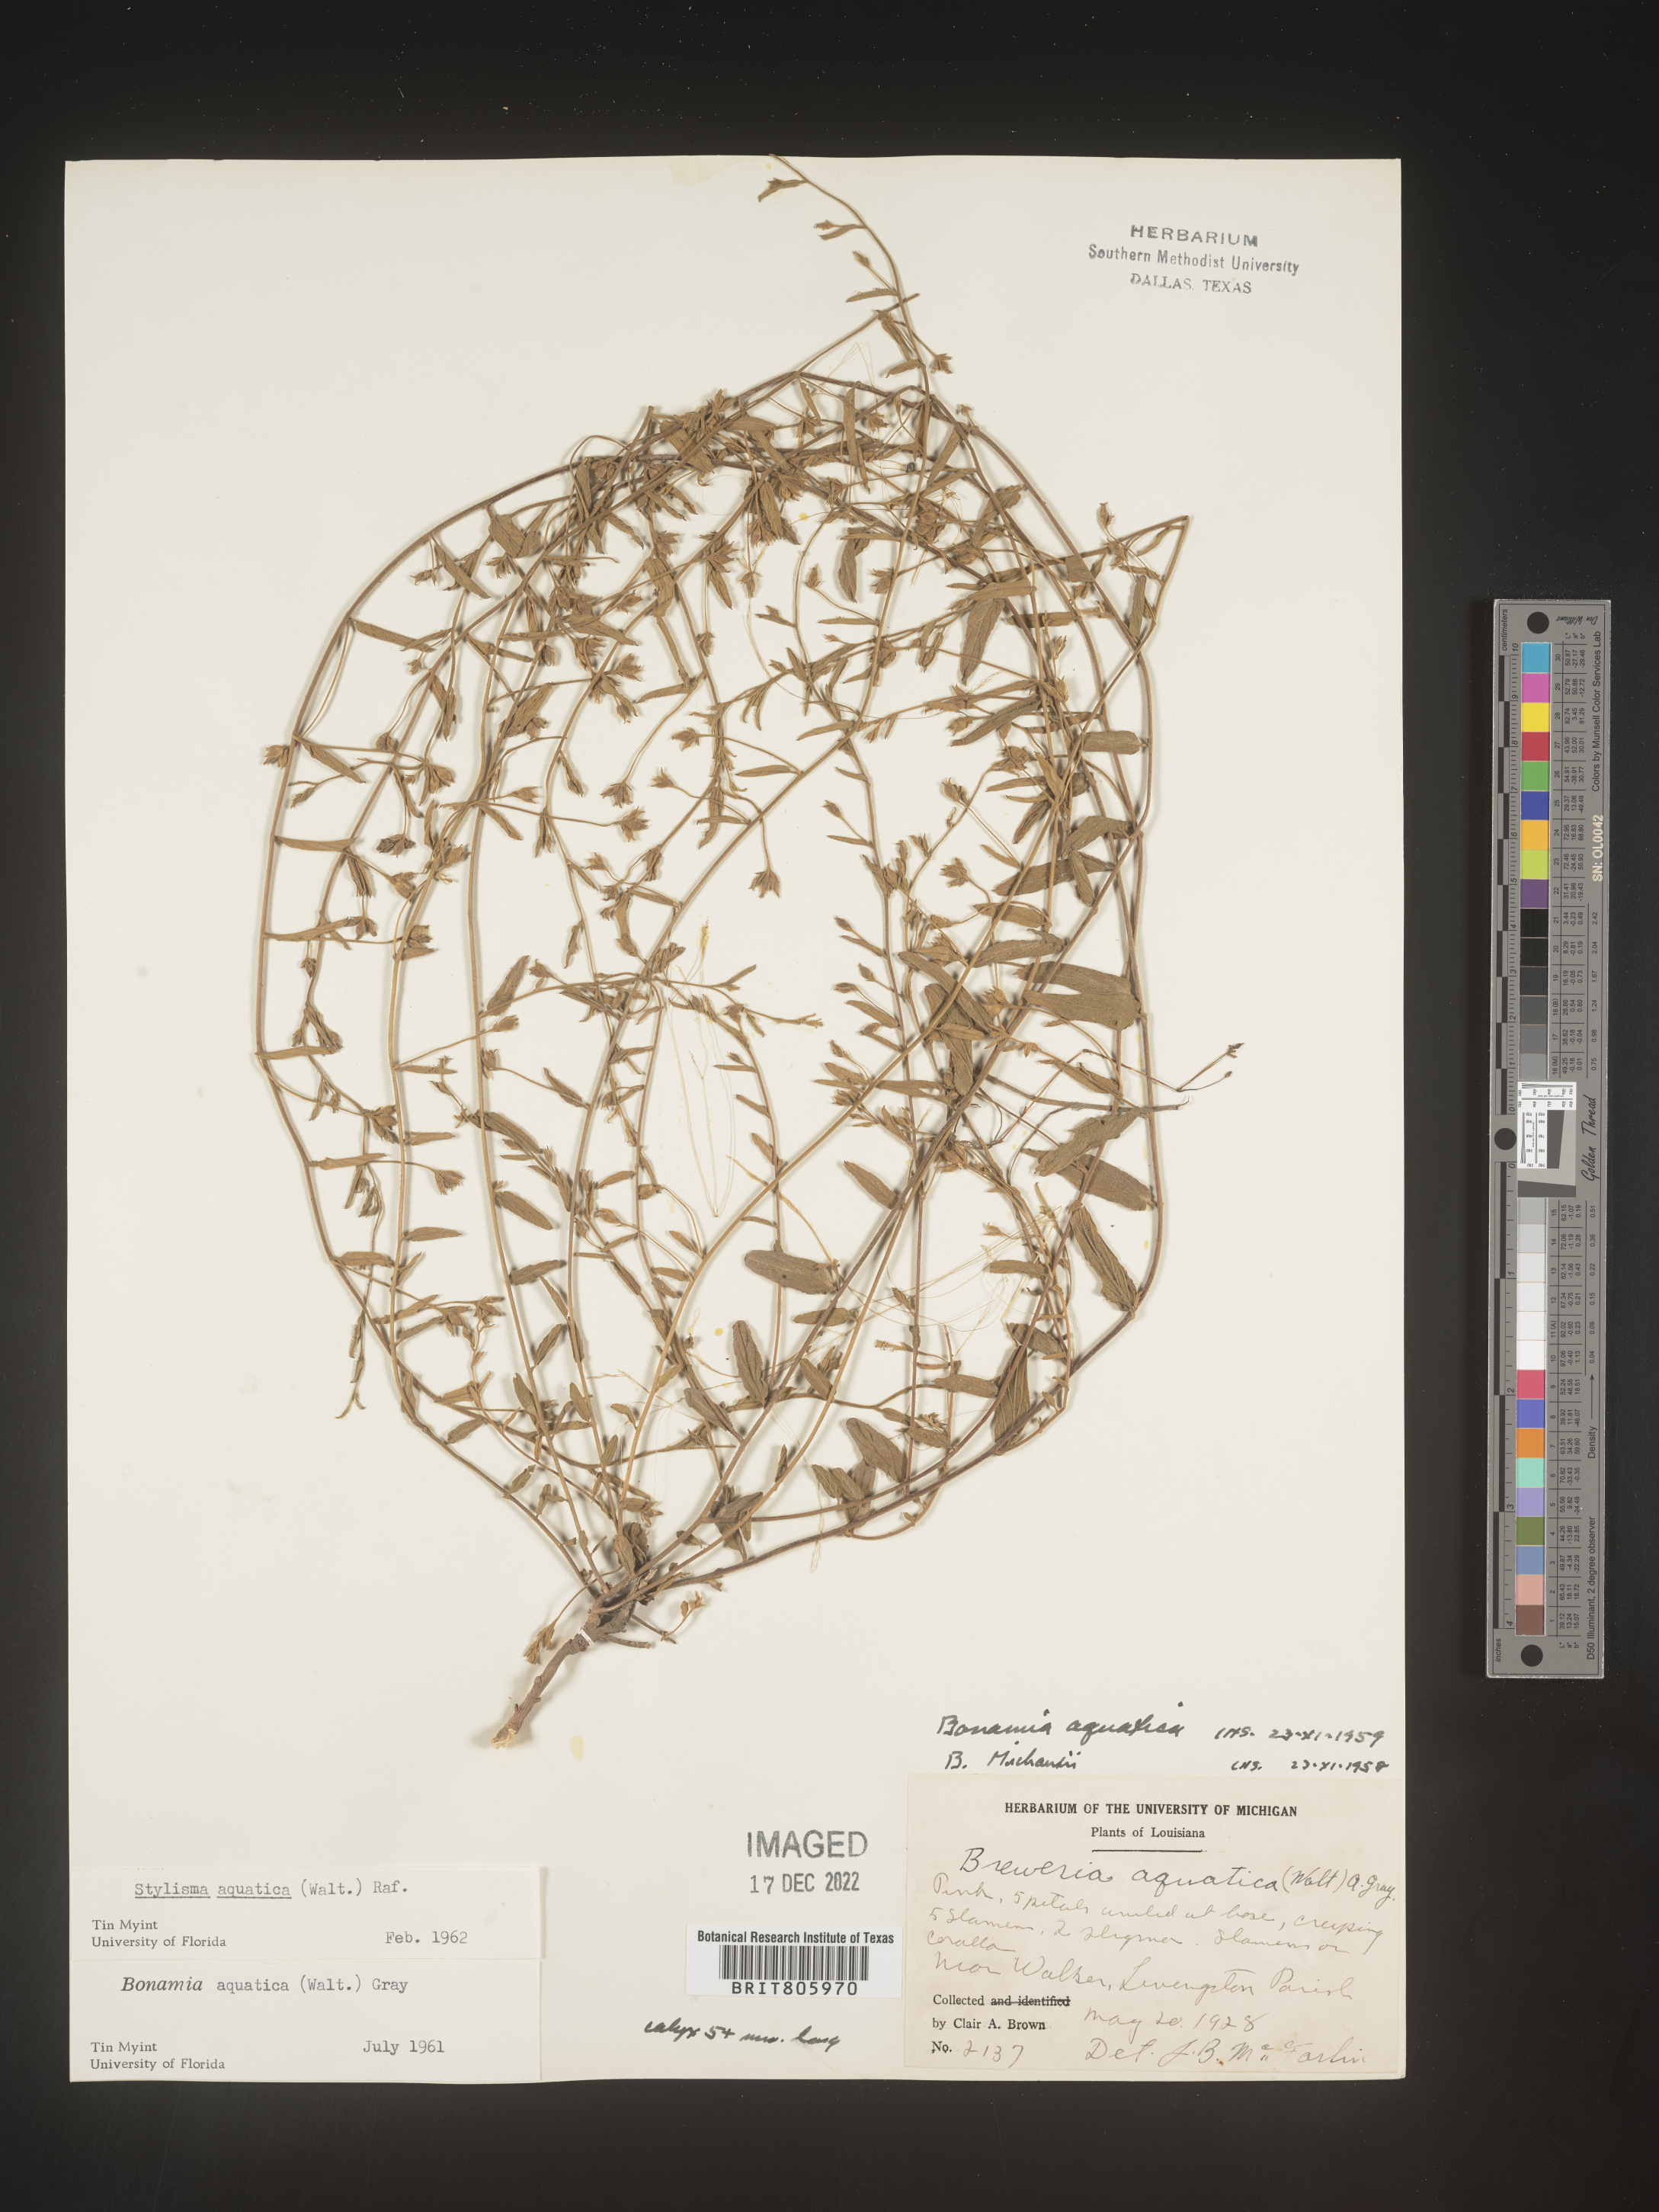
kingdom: Plantae
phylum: Tracheophyta
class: Magnoliopsida
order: Solanales
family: Convolvulaceae
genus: Stylisma
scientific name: Stylisma
